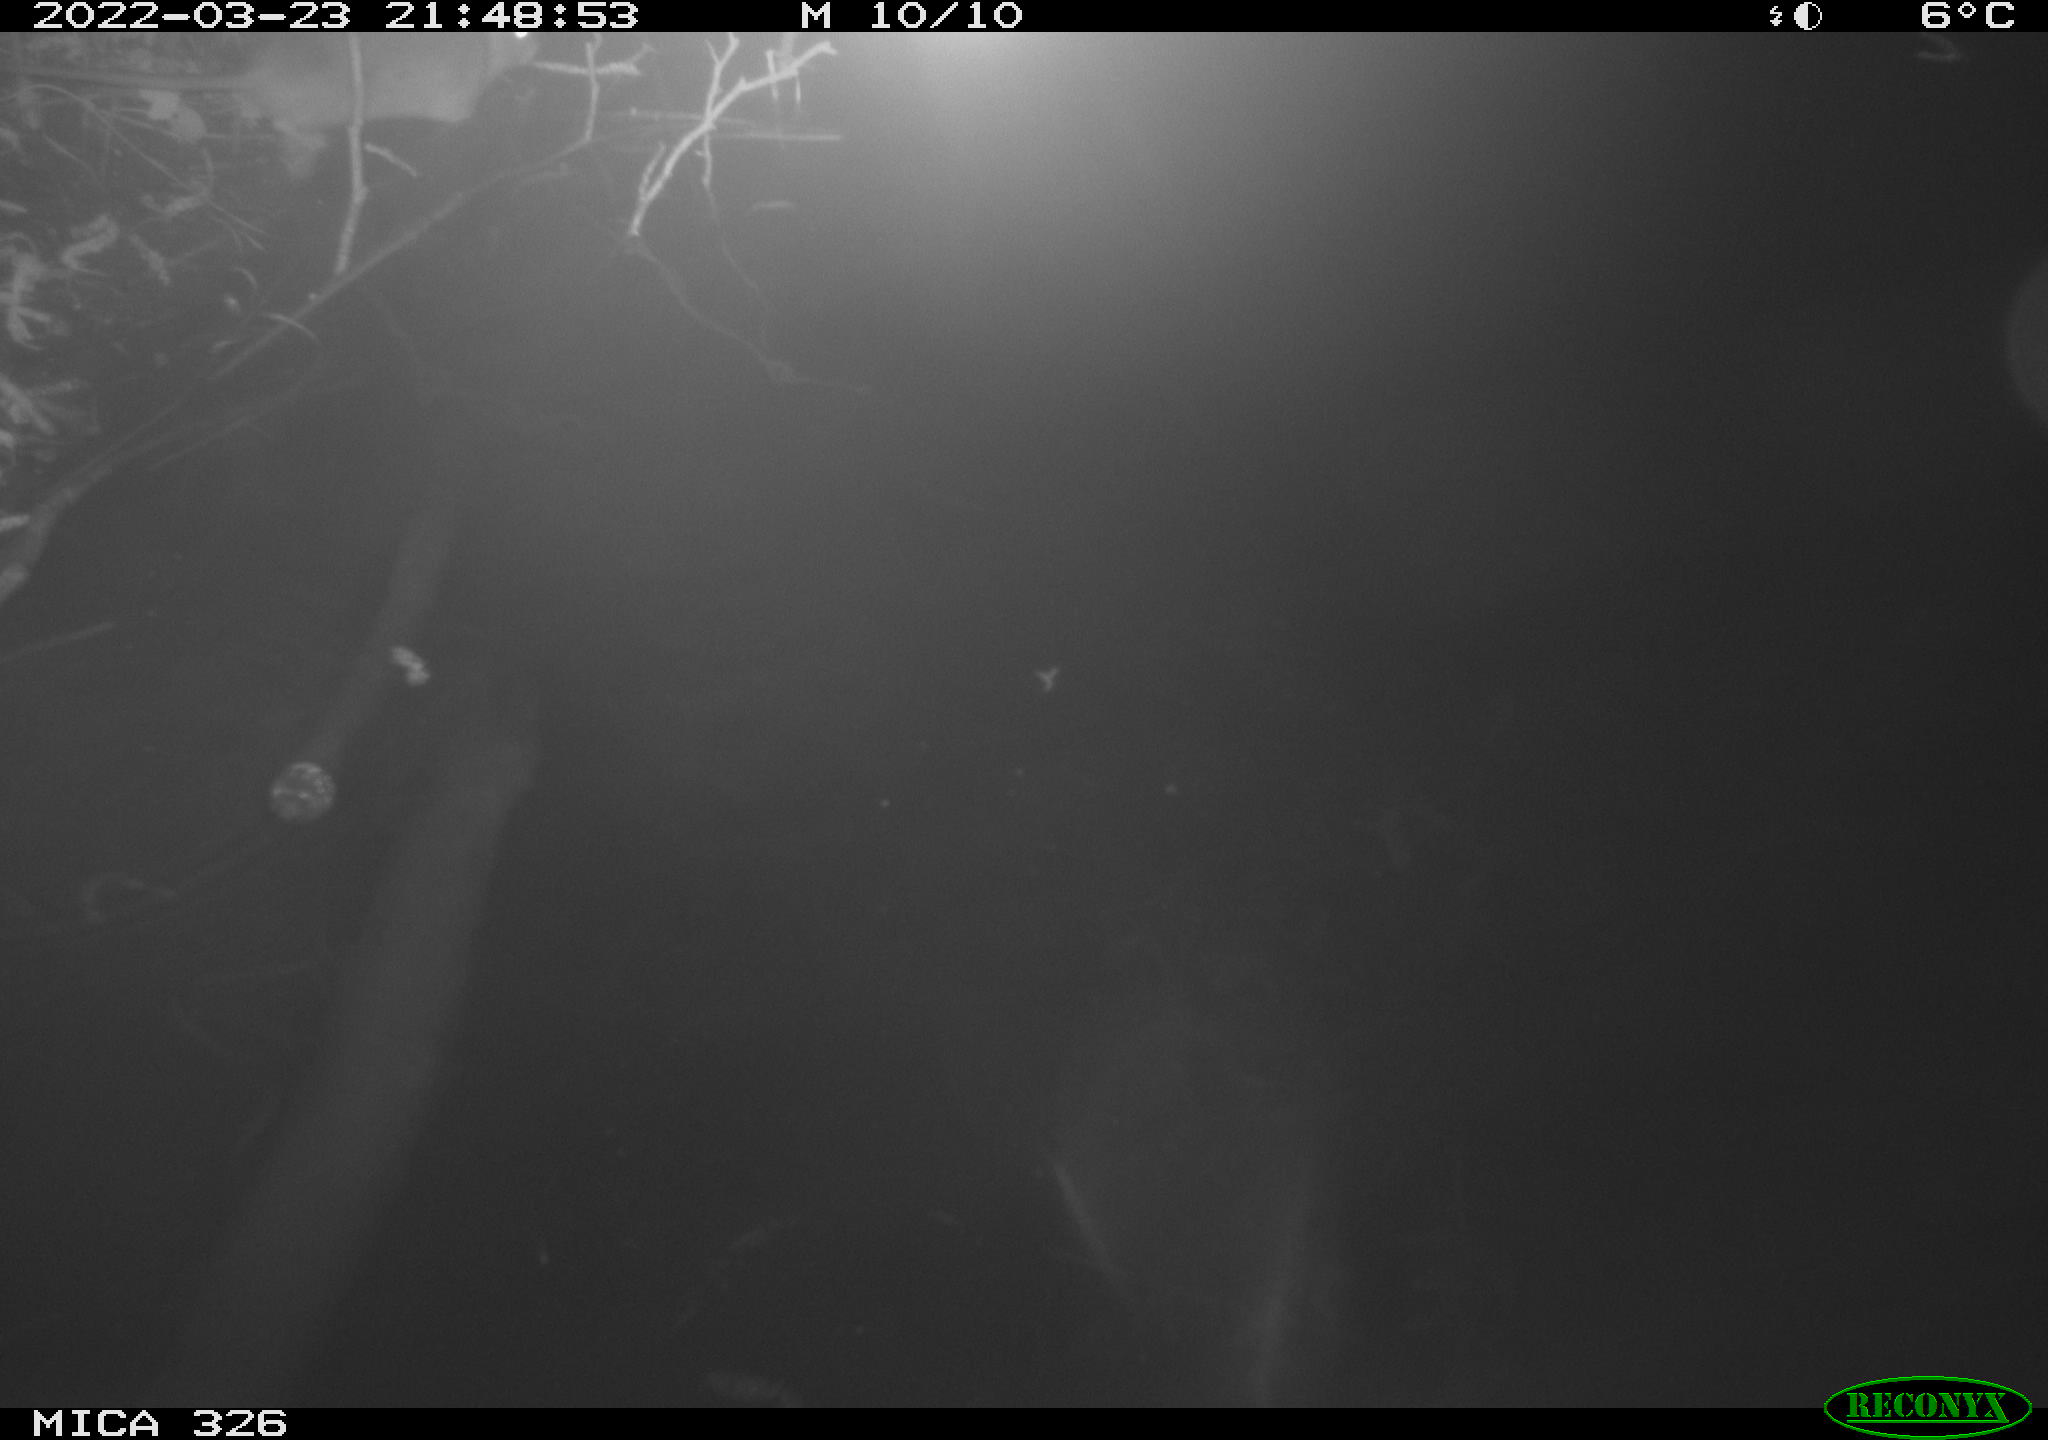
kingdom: Animalia
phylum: Chordata
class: Mammalia
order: Rodentia
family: Cricetidae
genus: Ondatra
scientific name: Ondatra zibethicus
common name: Muskrat
